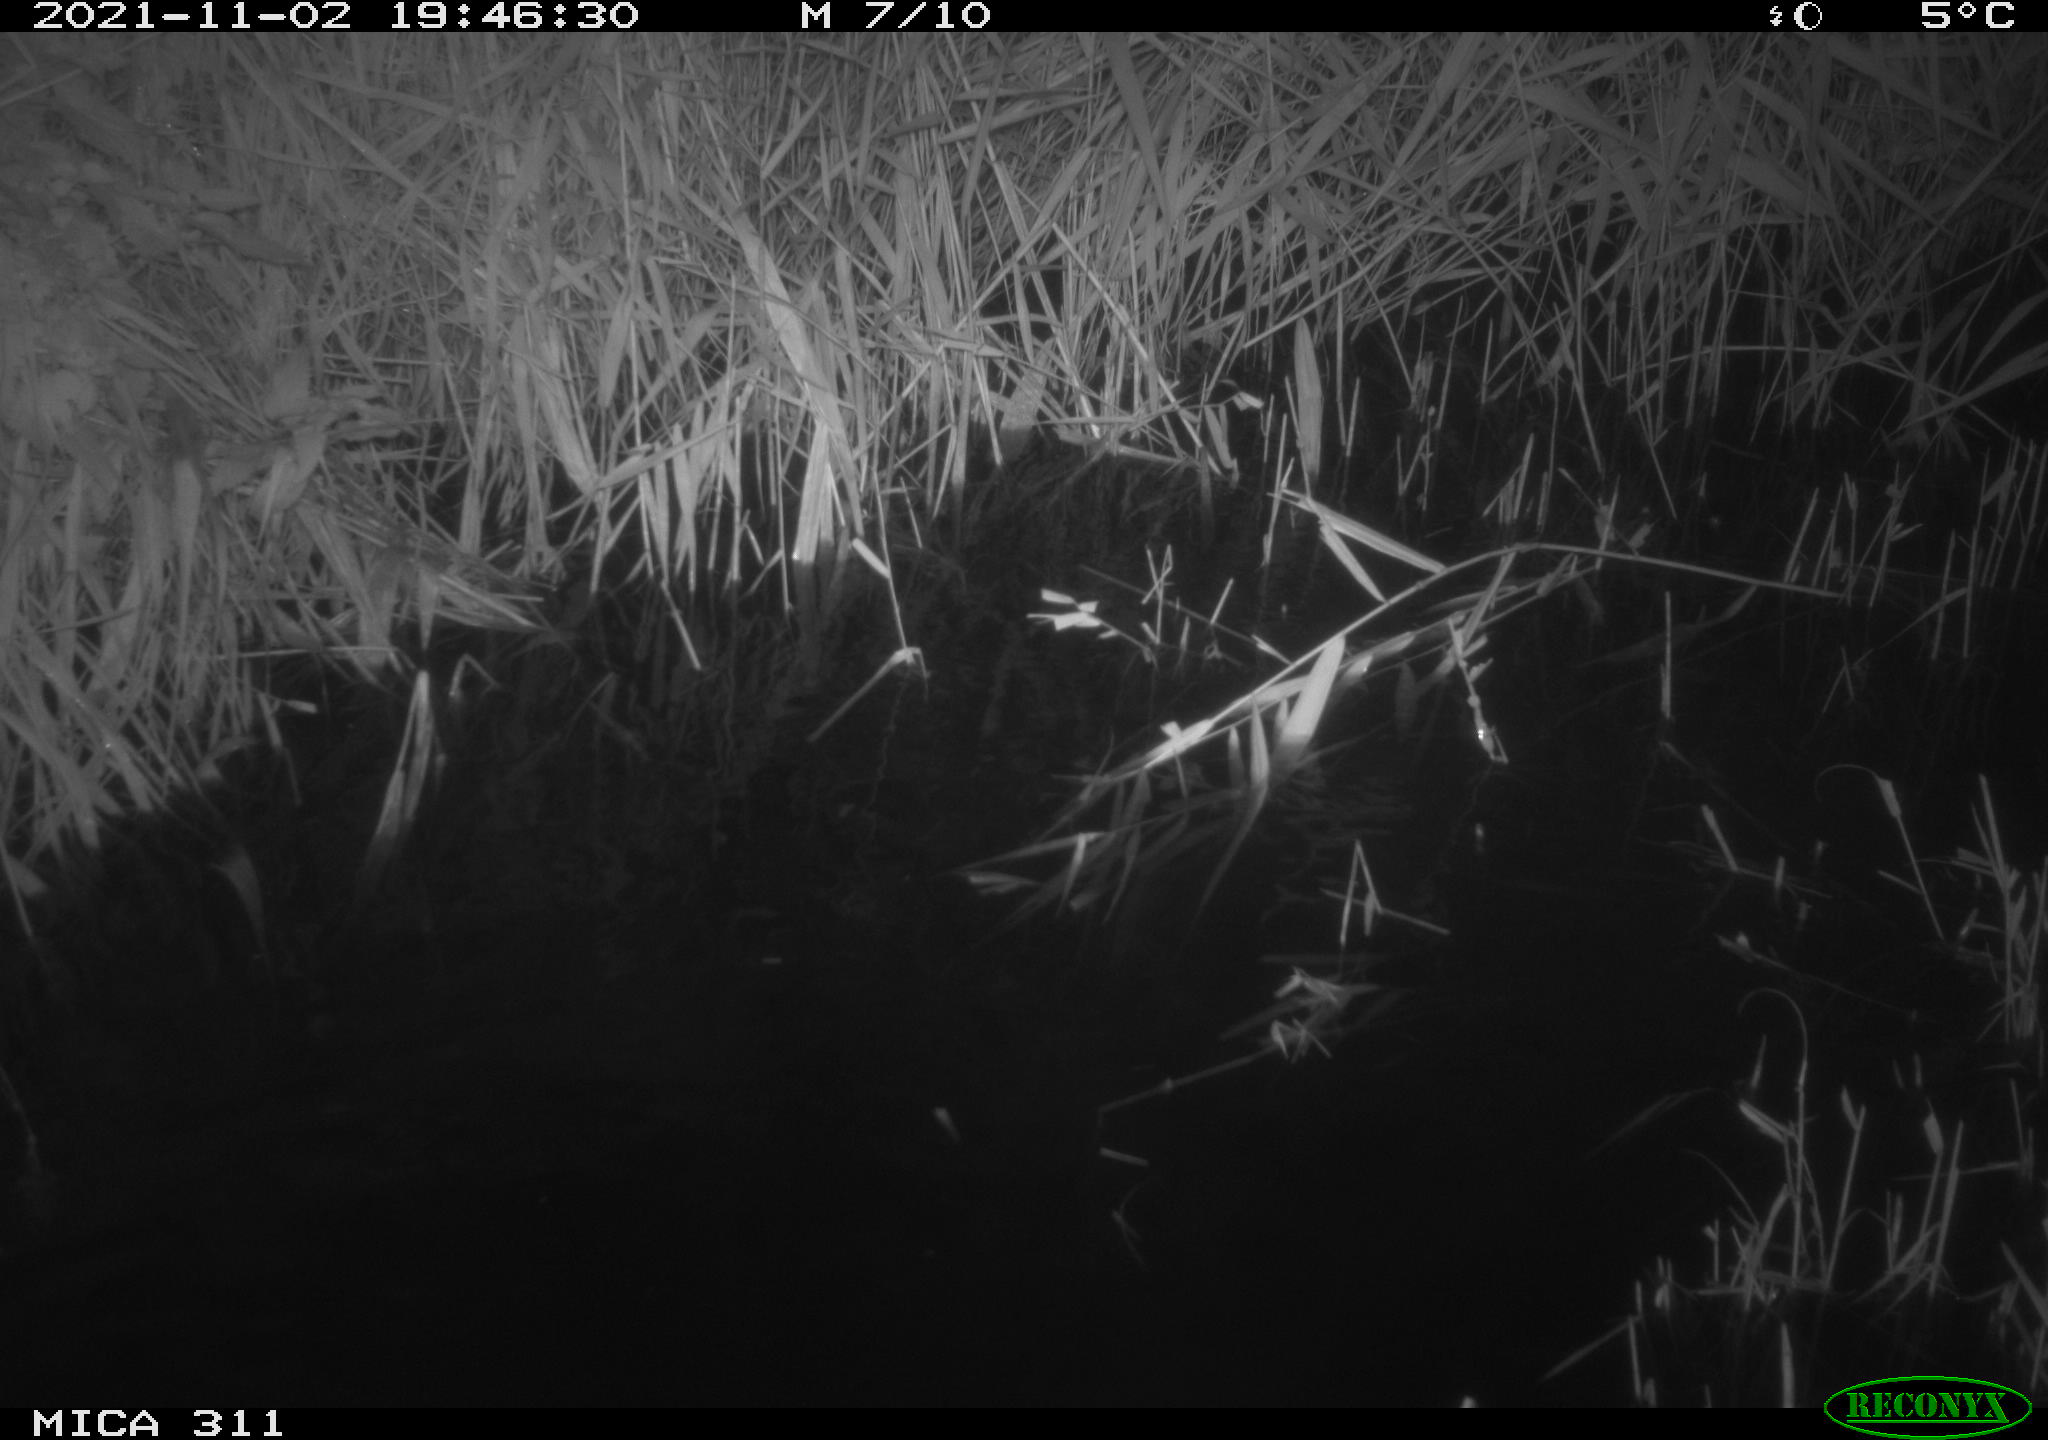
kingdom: Animalia
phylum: Chordata
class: Mammalia
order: Rodentia
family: Muridae
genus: Rattus
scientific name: Rattus norvegicus
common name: Brown rat
